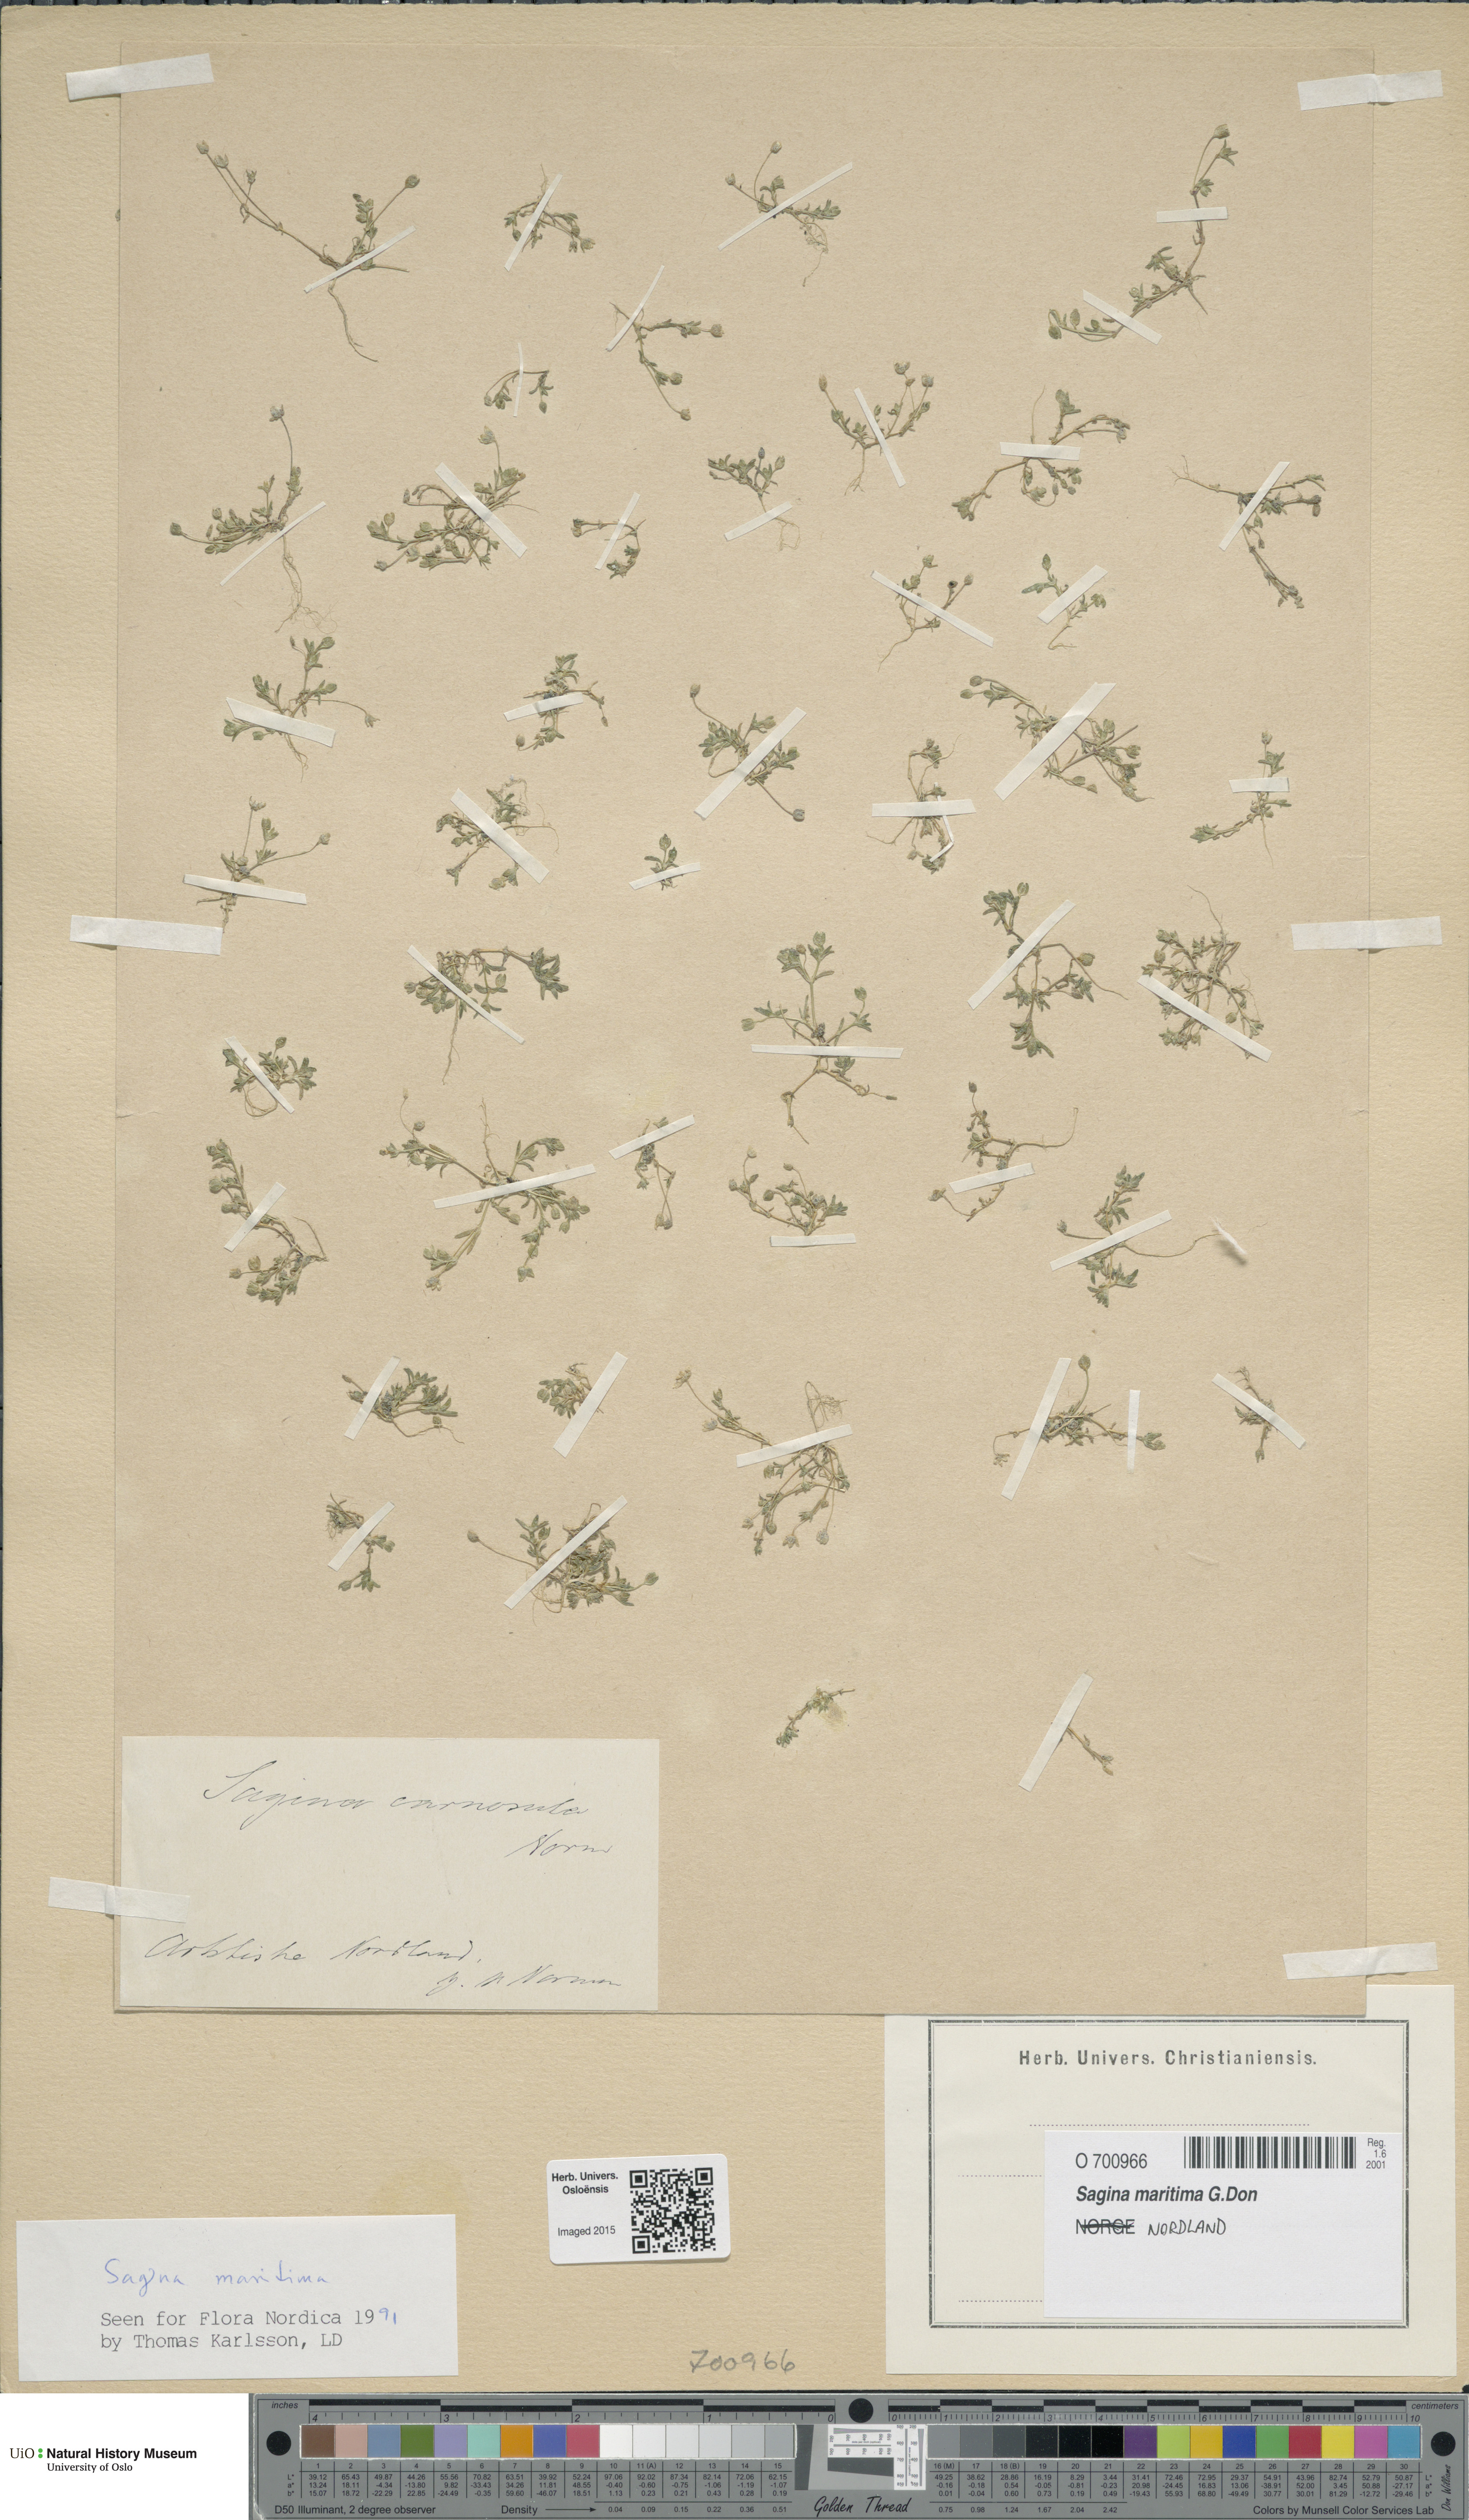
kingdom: Plantae
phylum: Tracheophyta
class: Magnoliopsida
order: Caryophyllales
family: Caryophyllaceae
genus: Sagina
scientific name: Sagina maritima
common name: Sea pearlwort
